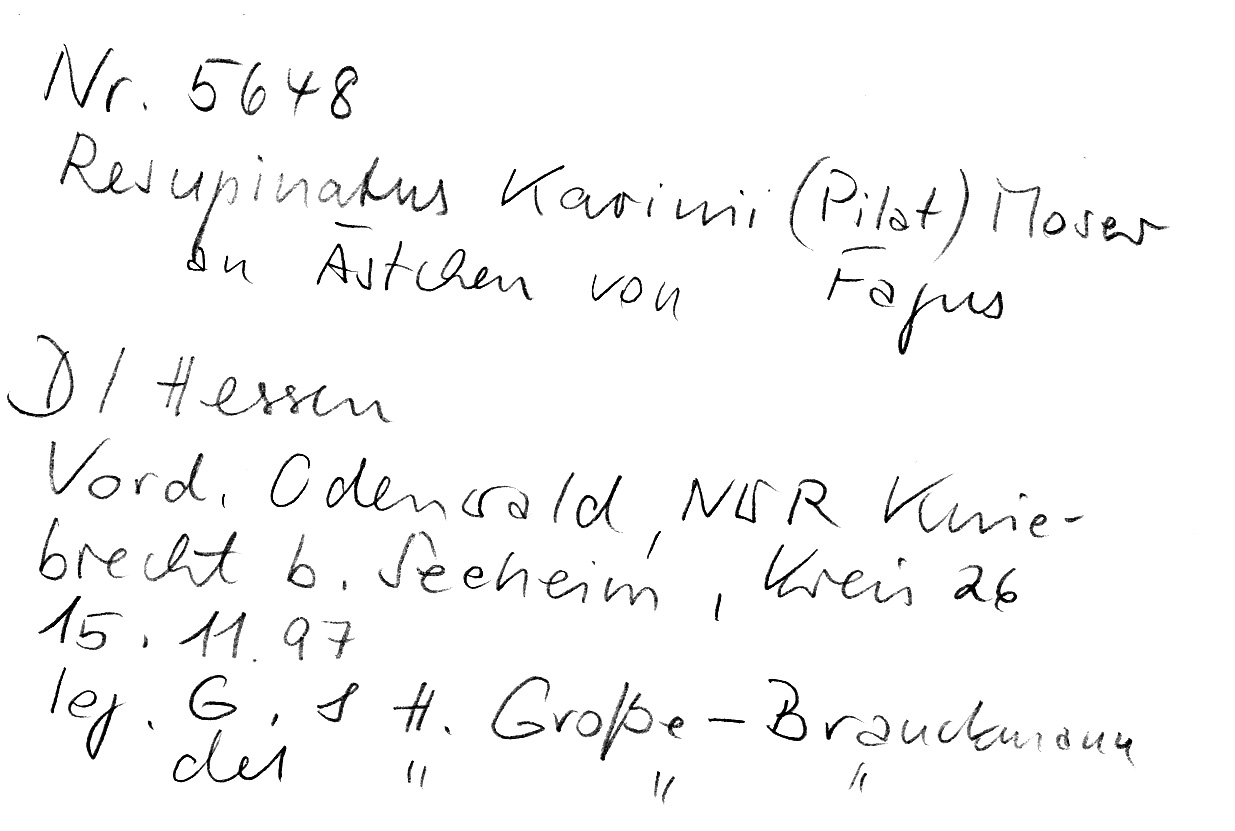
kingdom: Fungi
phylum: Basidiomycota
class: Agaricomycetes
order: Agaricales
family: Pleurotaceae
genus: Resupinatus
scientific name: Resupinatus kavinii
